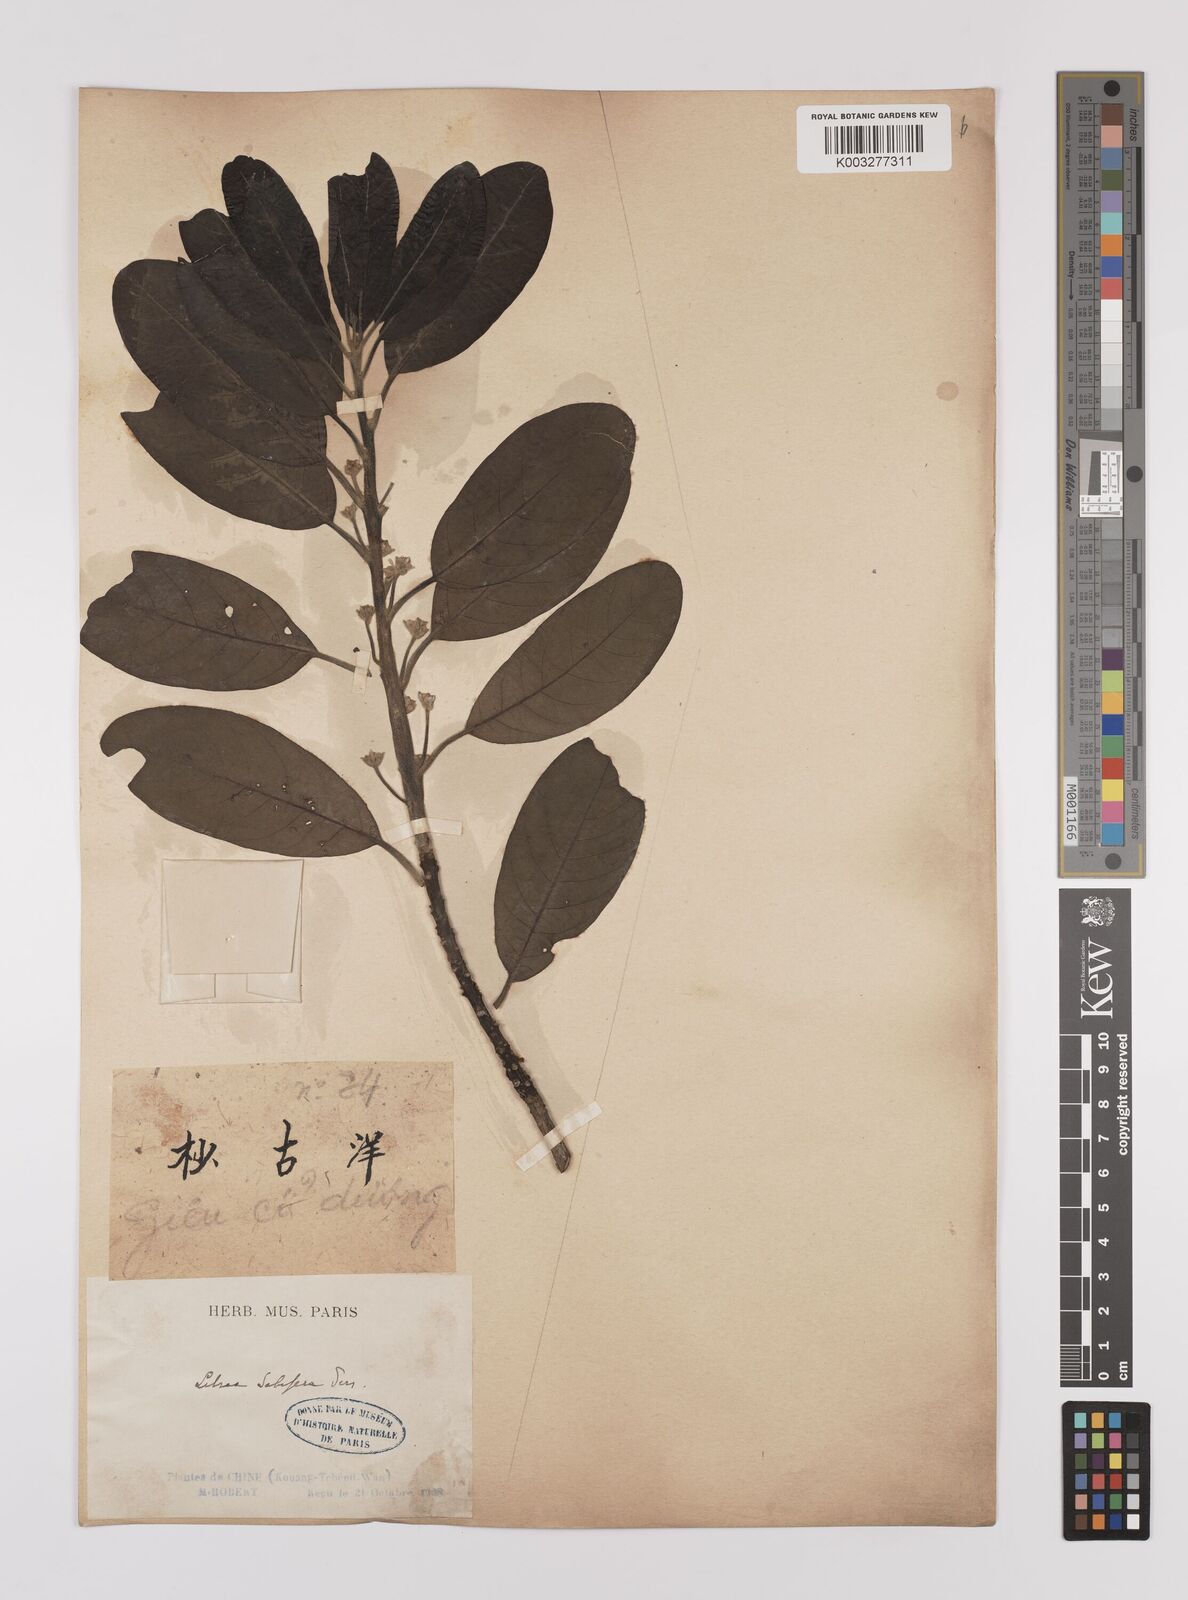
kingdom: Plantae
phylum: Tracheophyta
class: Magnoliopsida
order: Laurales
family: Lauraceae
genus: Litsea
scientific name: Litsea glutinosa
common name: Indian-laurel
